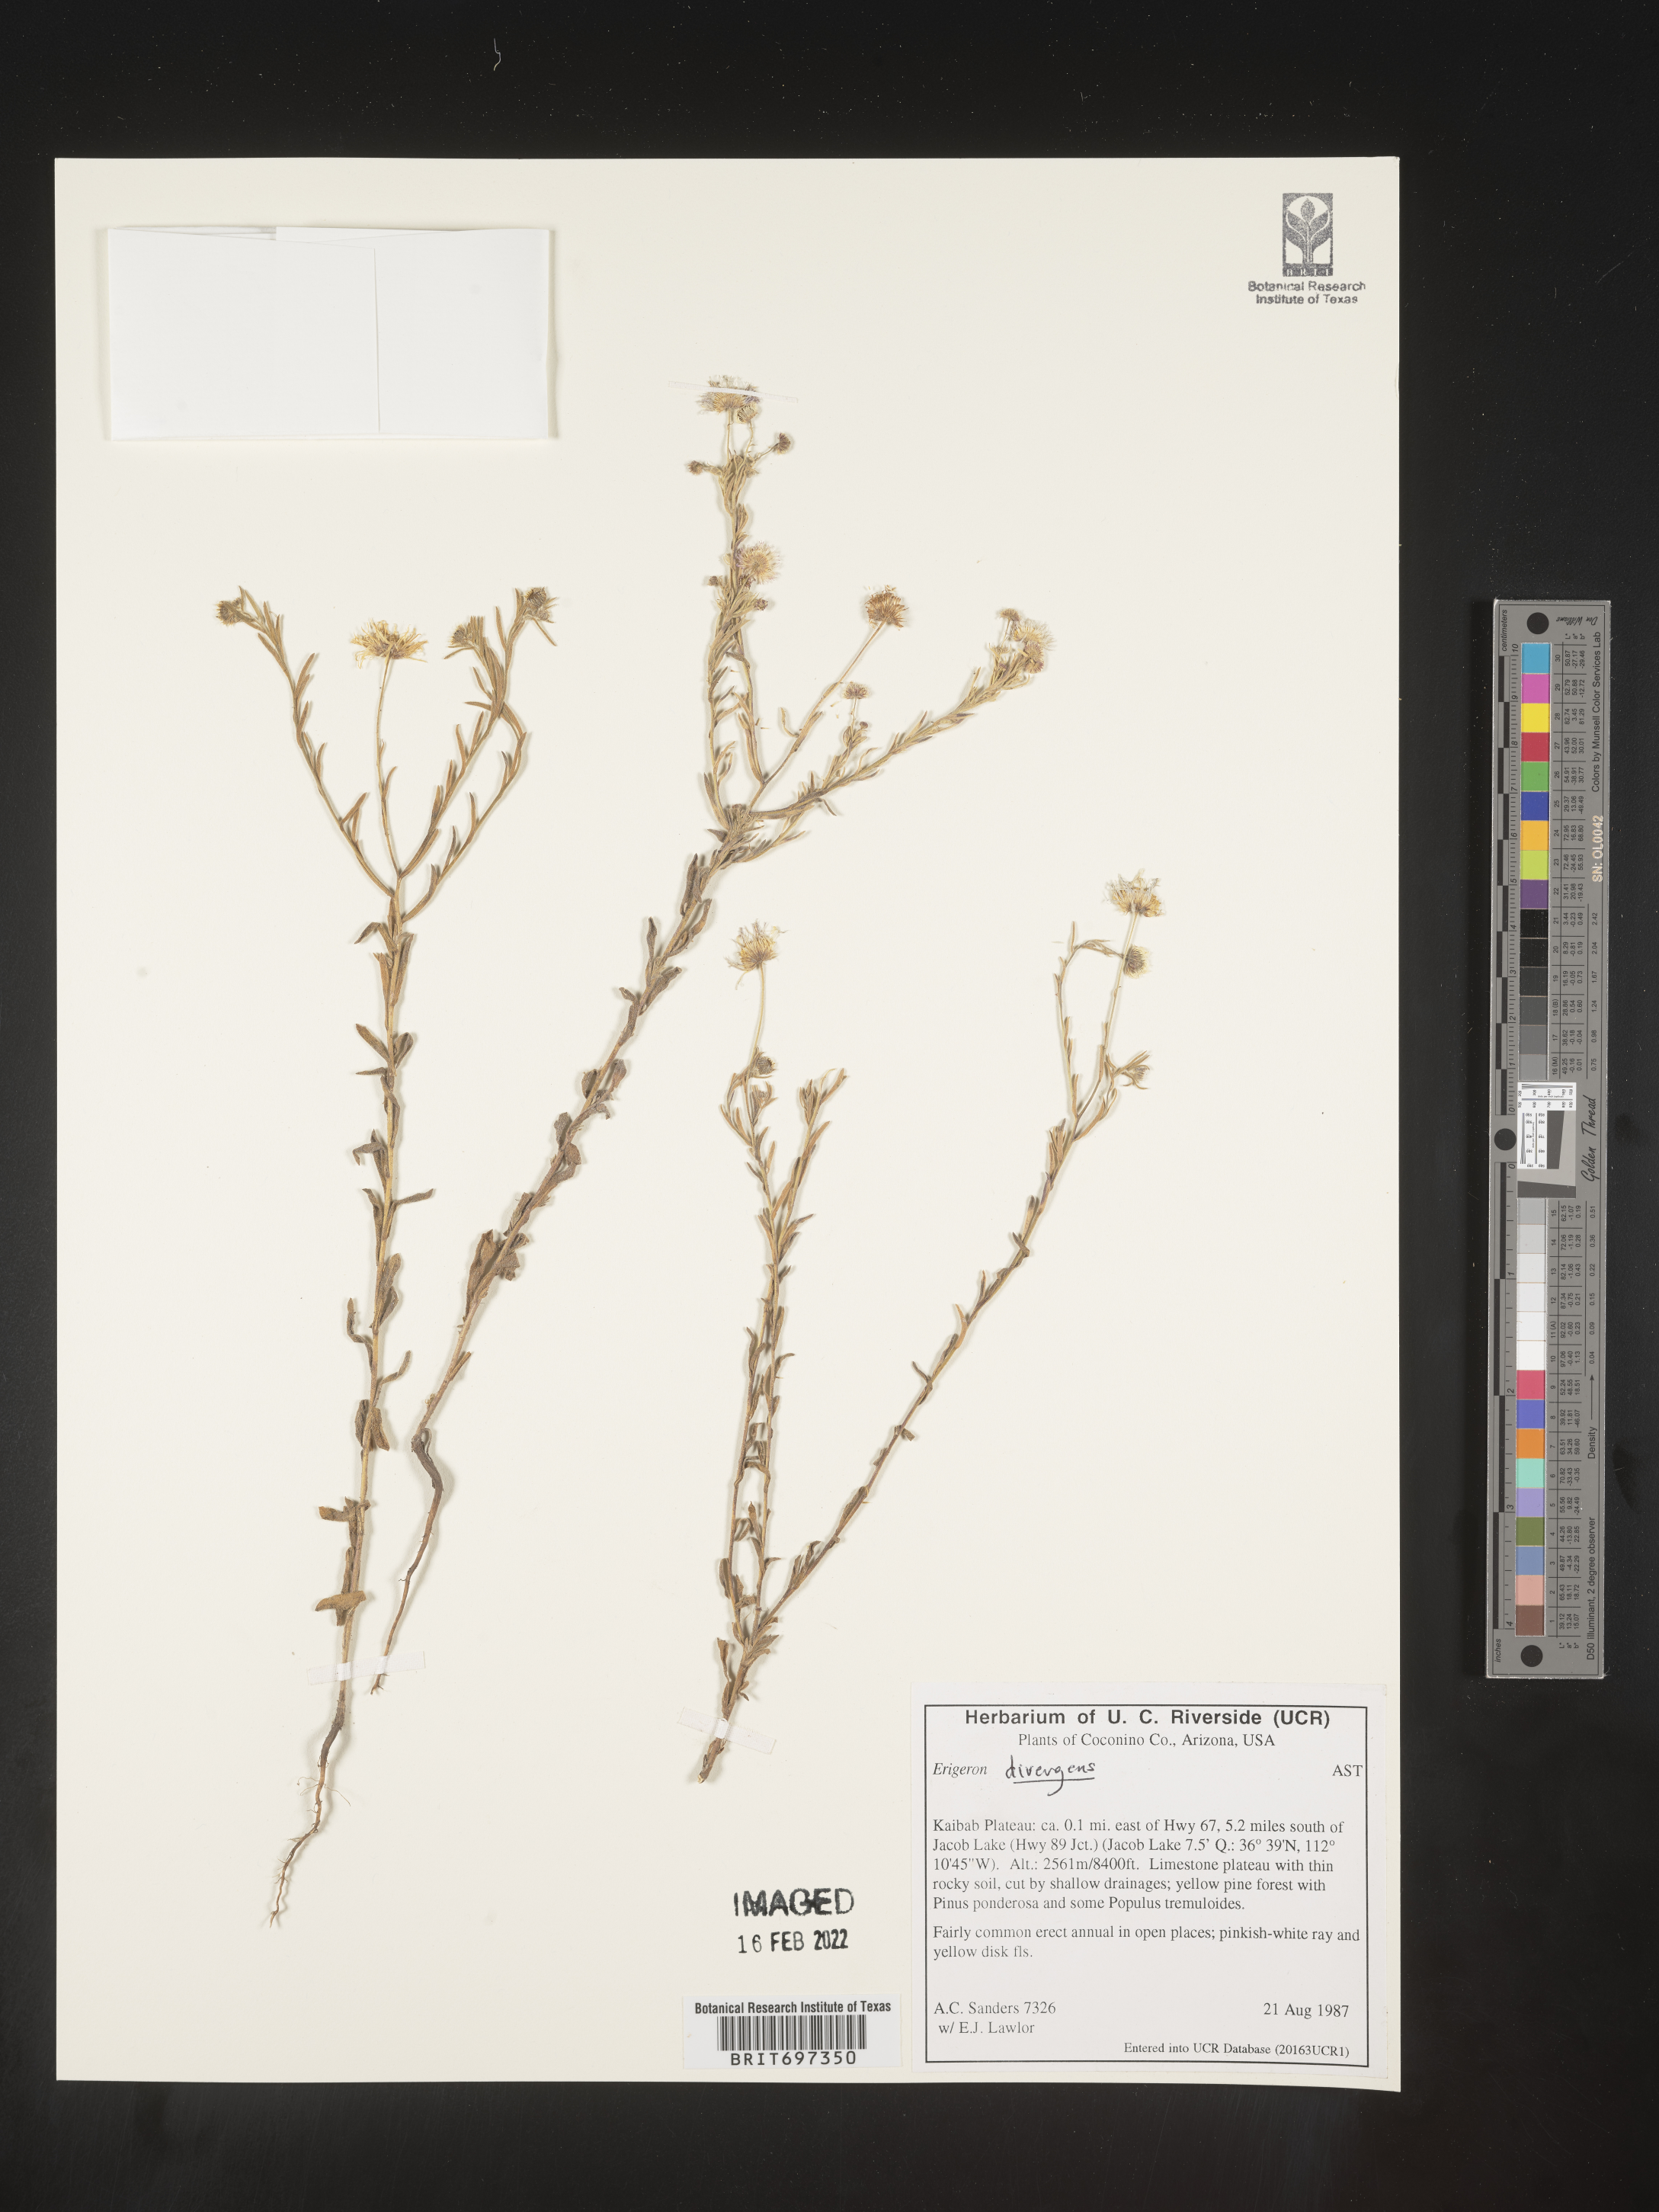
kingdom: Plantae
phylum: Tracheophyta
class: Magnoliopsida
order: Asterales
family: Asteraceae
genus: Erigeron
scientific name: Erigeron divergens
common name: Diffuse fleabane
